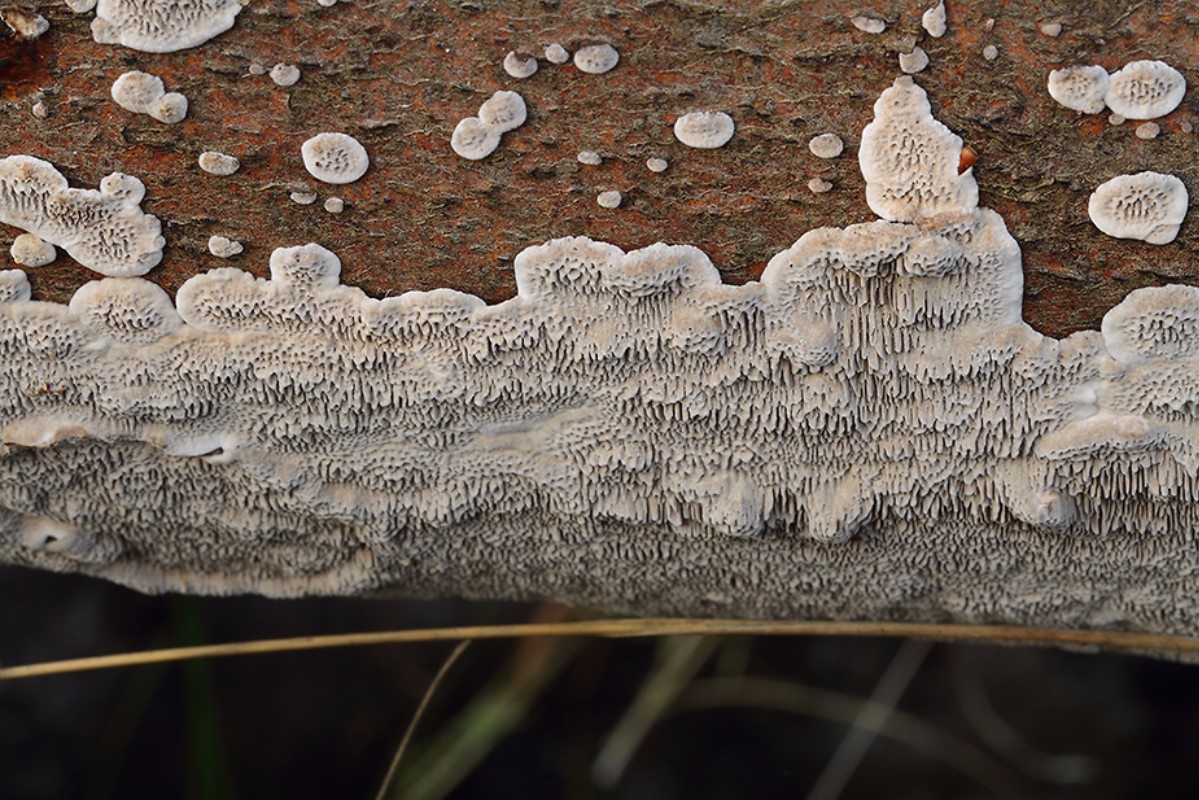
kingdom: Fungi
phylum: Basidiomycota
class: Agaricomycetes
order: Polyporales
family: Polyporaceae
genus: Podofomes
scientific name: Podofomes mollis
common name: blød begporesvamp
